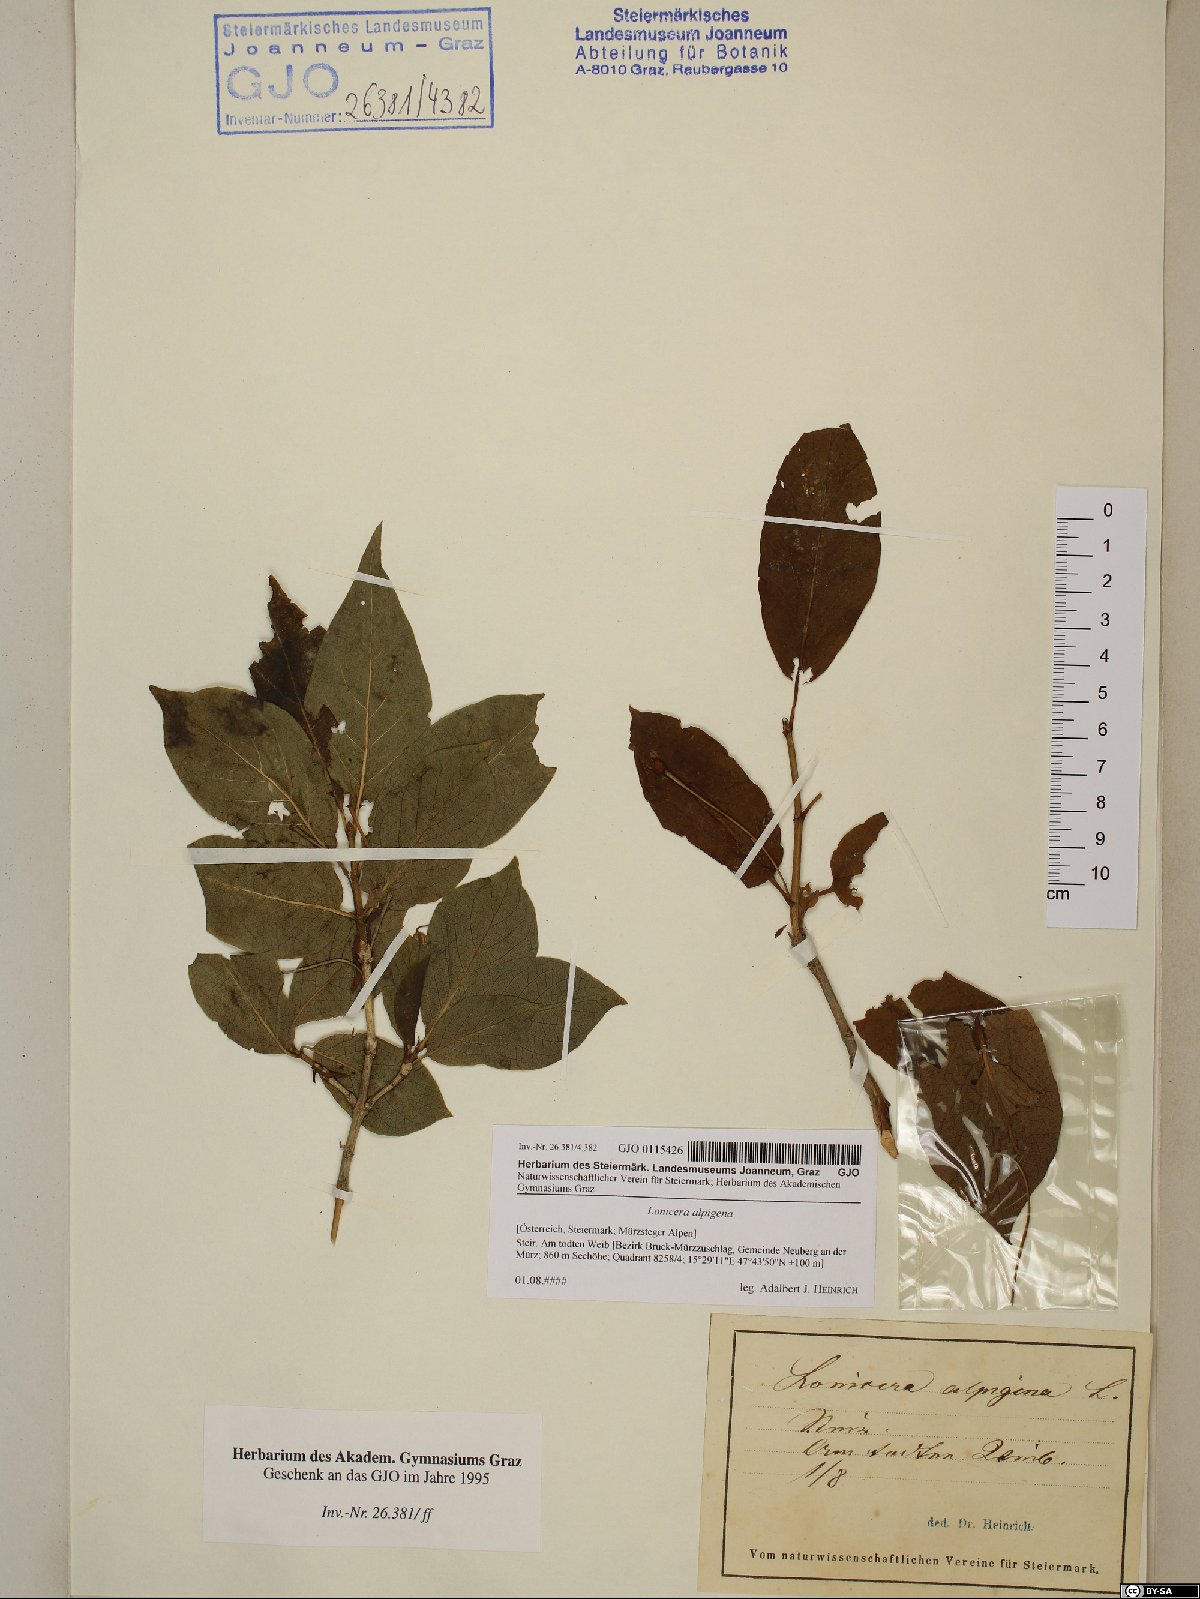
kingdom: Plantae
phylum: Tracheophyta
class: Magnoliopsida
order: Dipsacales
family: Caprifoliaceae
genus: Lonicera
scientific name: Lonicera alpigena
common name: Alpine honeysuckle
